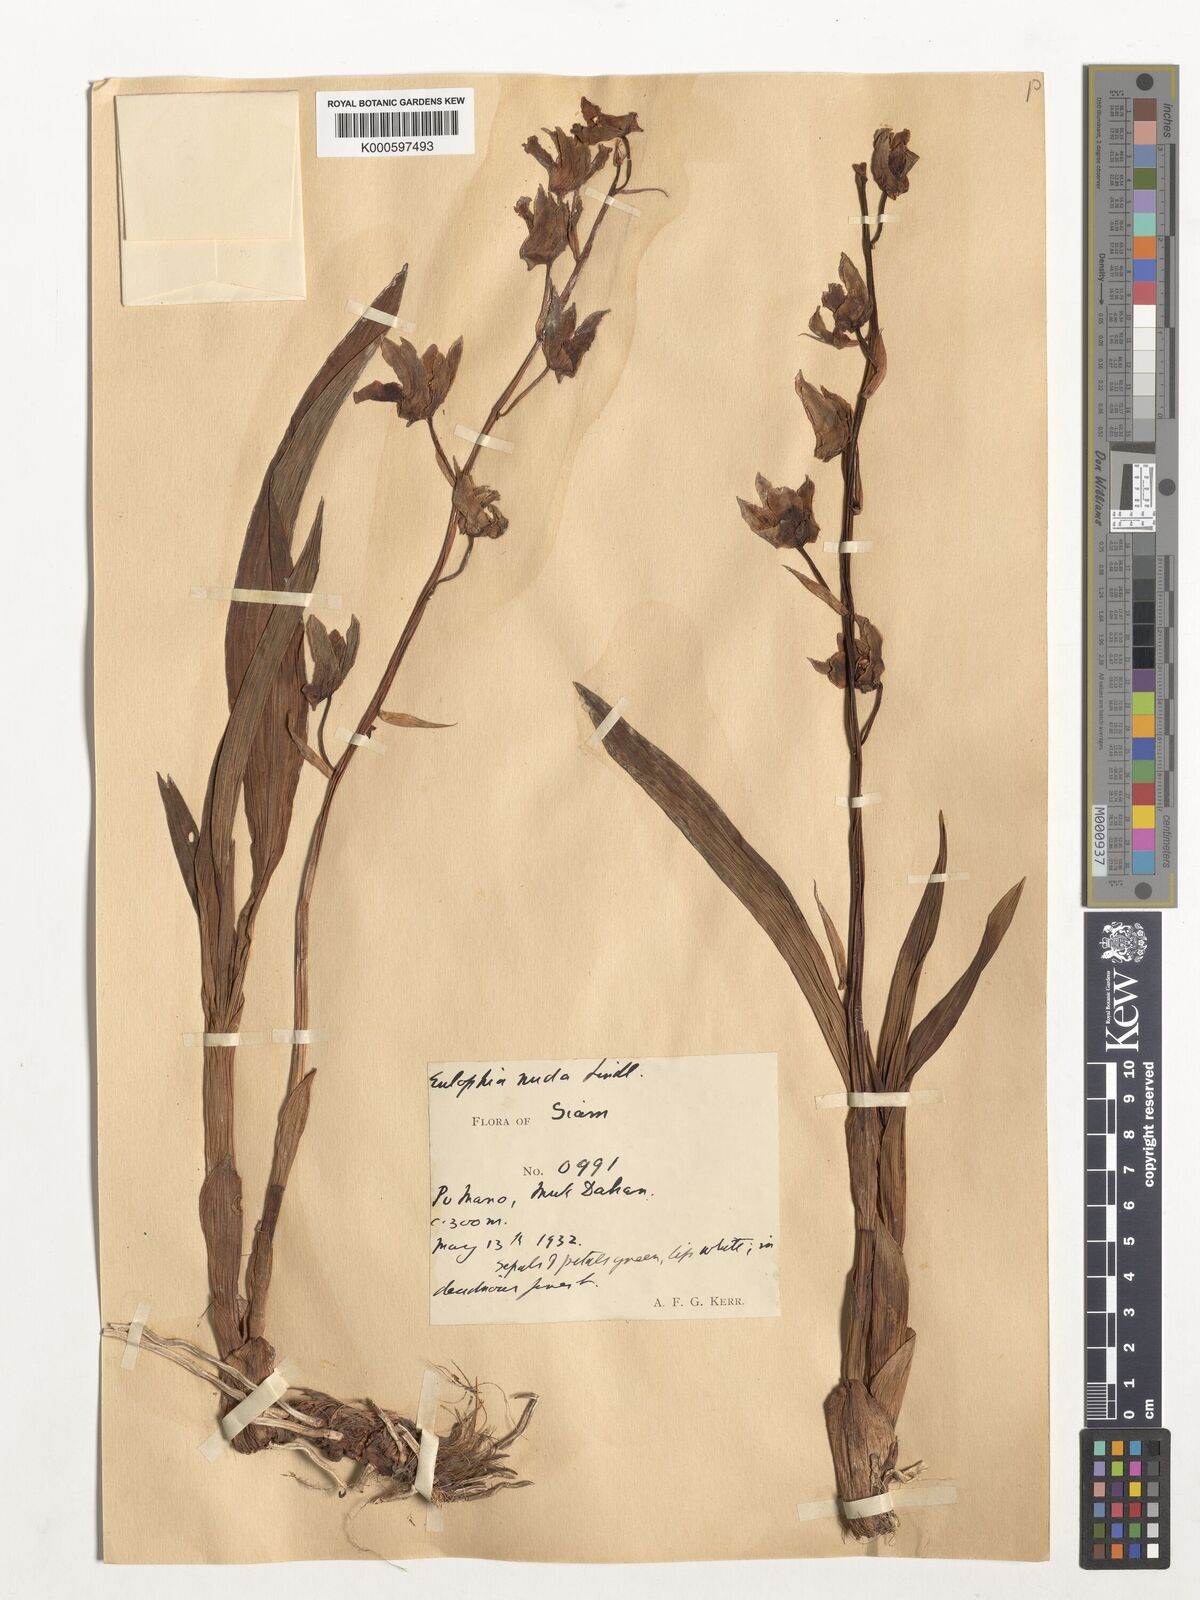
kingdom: Plantae
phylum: Tracheophyta
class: Liliopsida
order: Asparagales
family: Orchidaceae
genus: Eulophia
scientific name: Eulophia nuda
